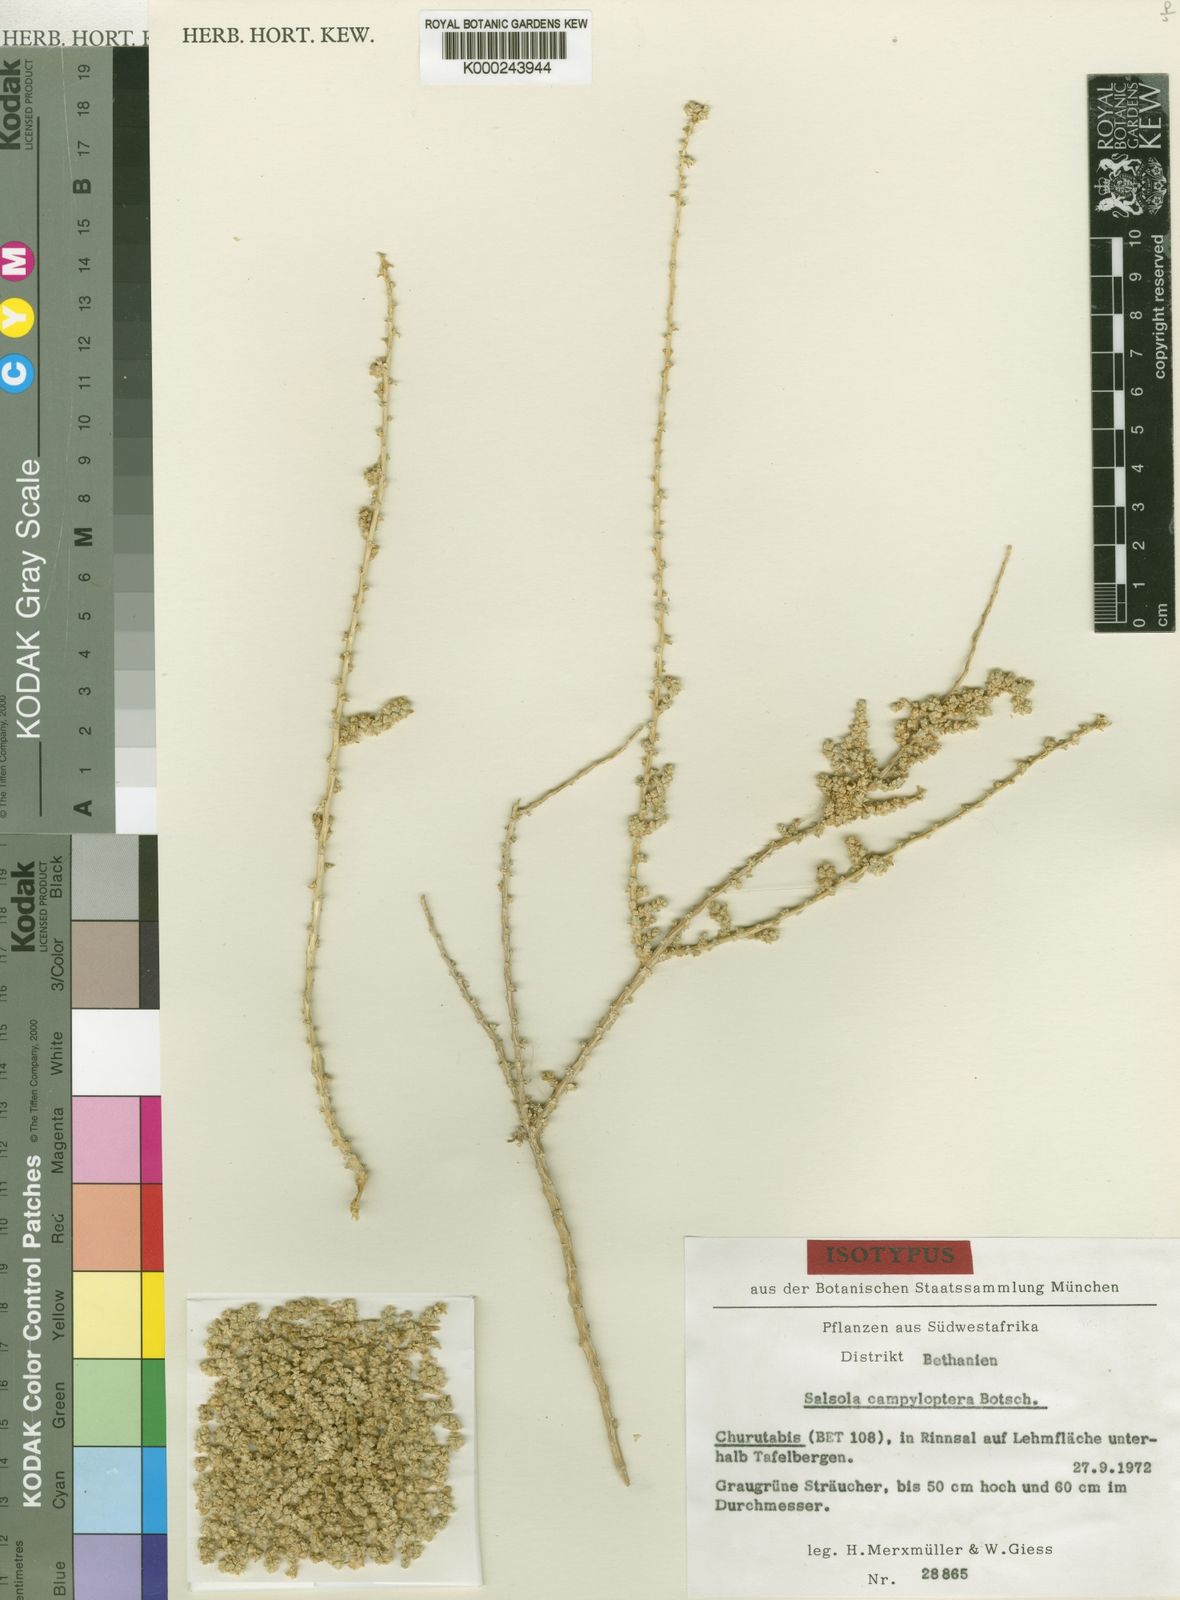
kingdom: Plantae
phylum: Tracheophyta
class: Magnoliopsida
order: Caryophyllales
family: Amaranthaceae
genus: Caroxylon
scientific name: Caroxylon campylopterum
